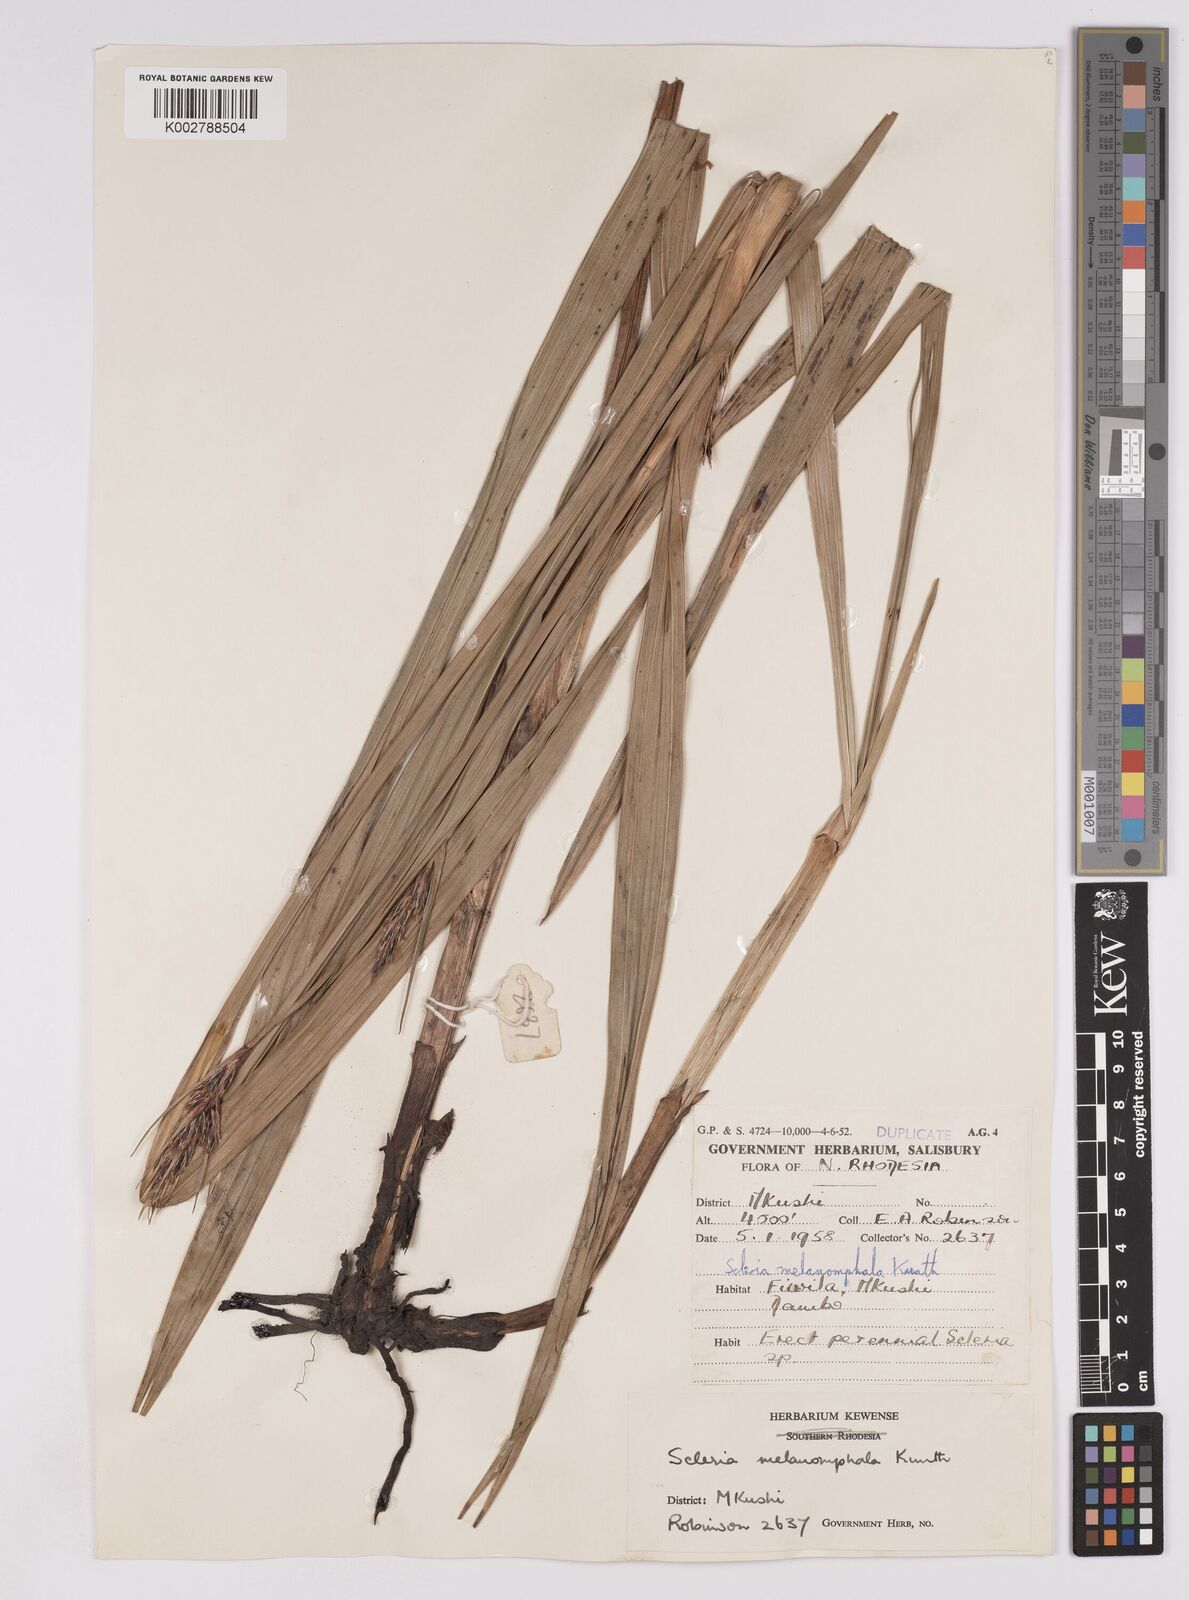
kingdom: Plantae
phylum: Tracheophyta
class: Liliopsida
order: Poales
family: Cyperaceae
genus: Scleria
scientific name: Scleria melanomphala
